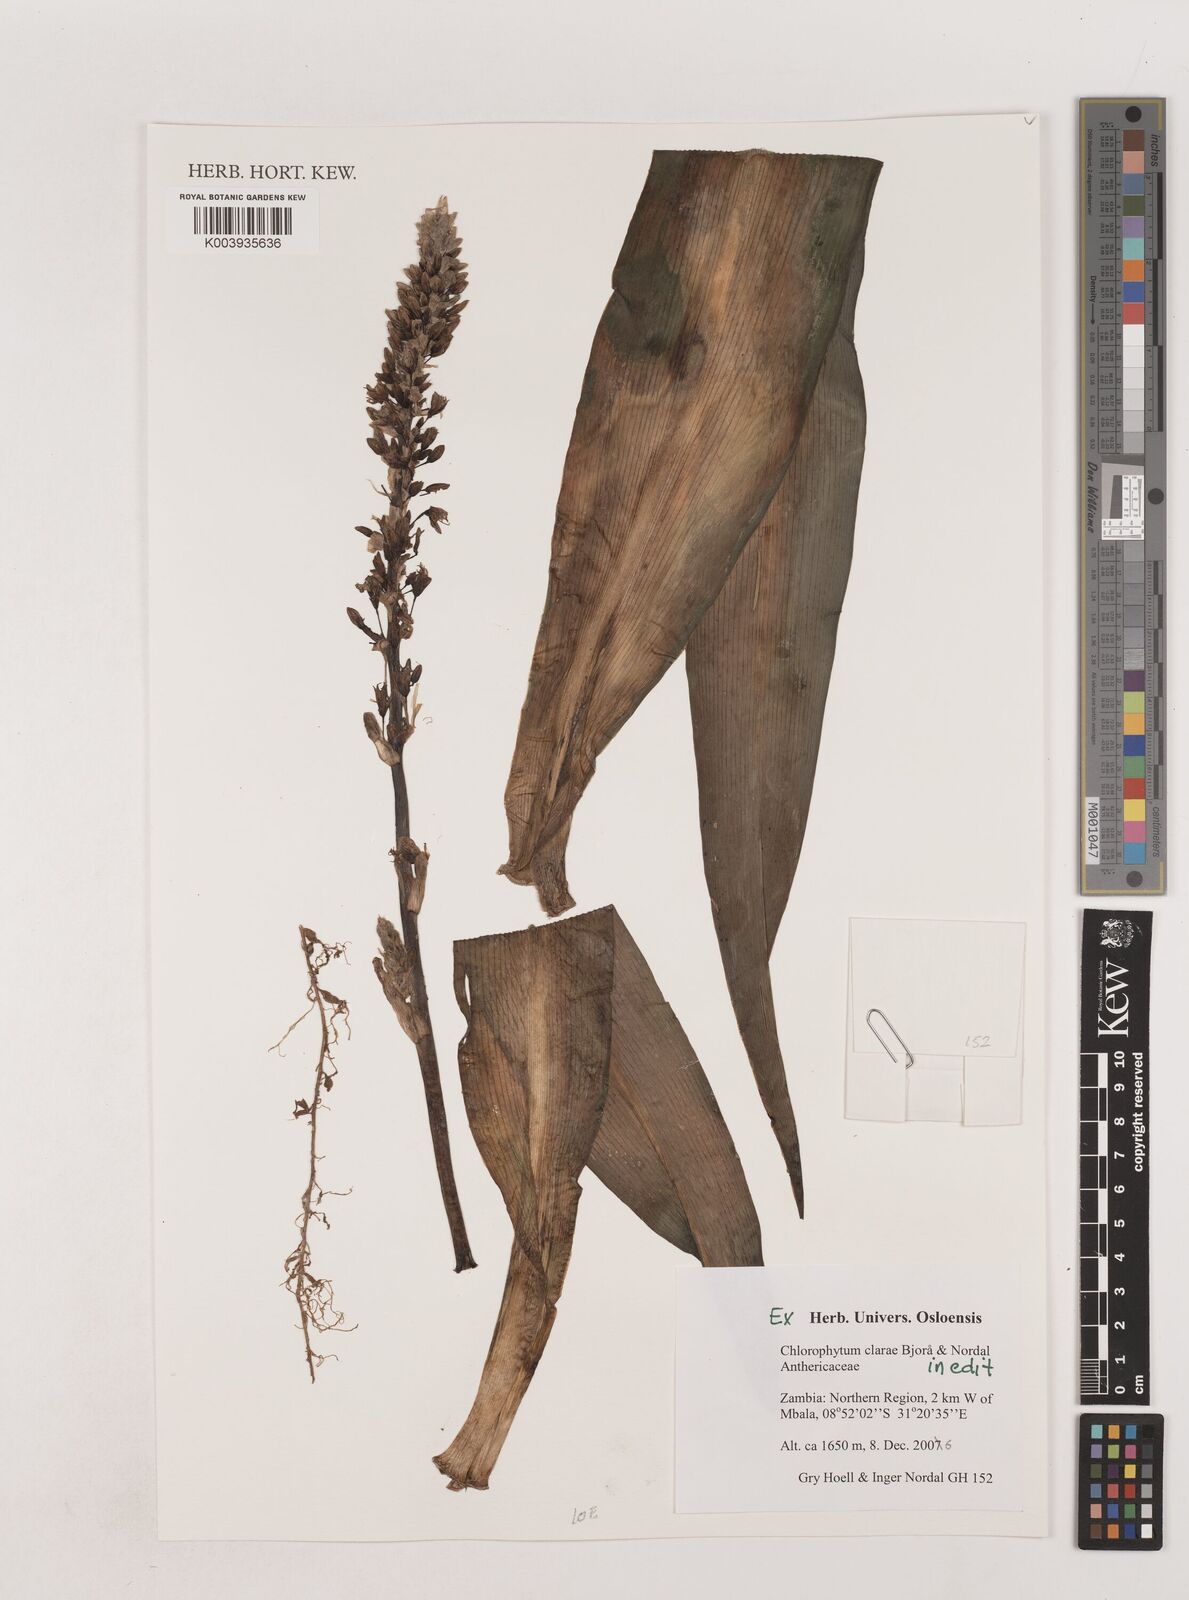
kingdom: Plantae
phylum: Tracheophyta
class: Liliopsida
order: Asparagales
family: Asparagaceae
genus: Chlorophytum
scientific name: Chlorophytum clarae
